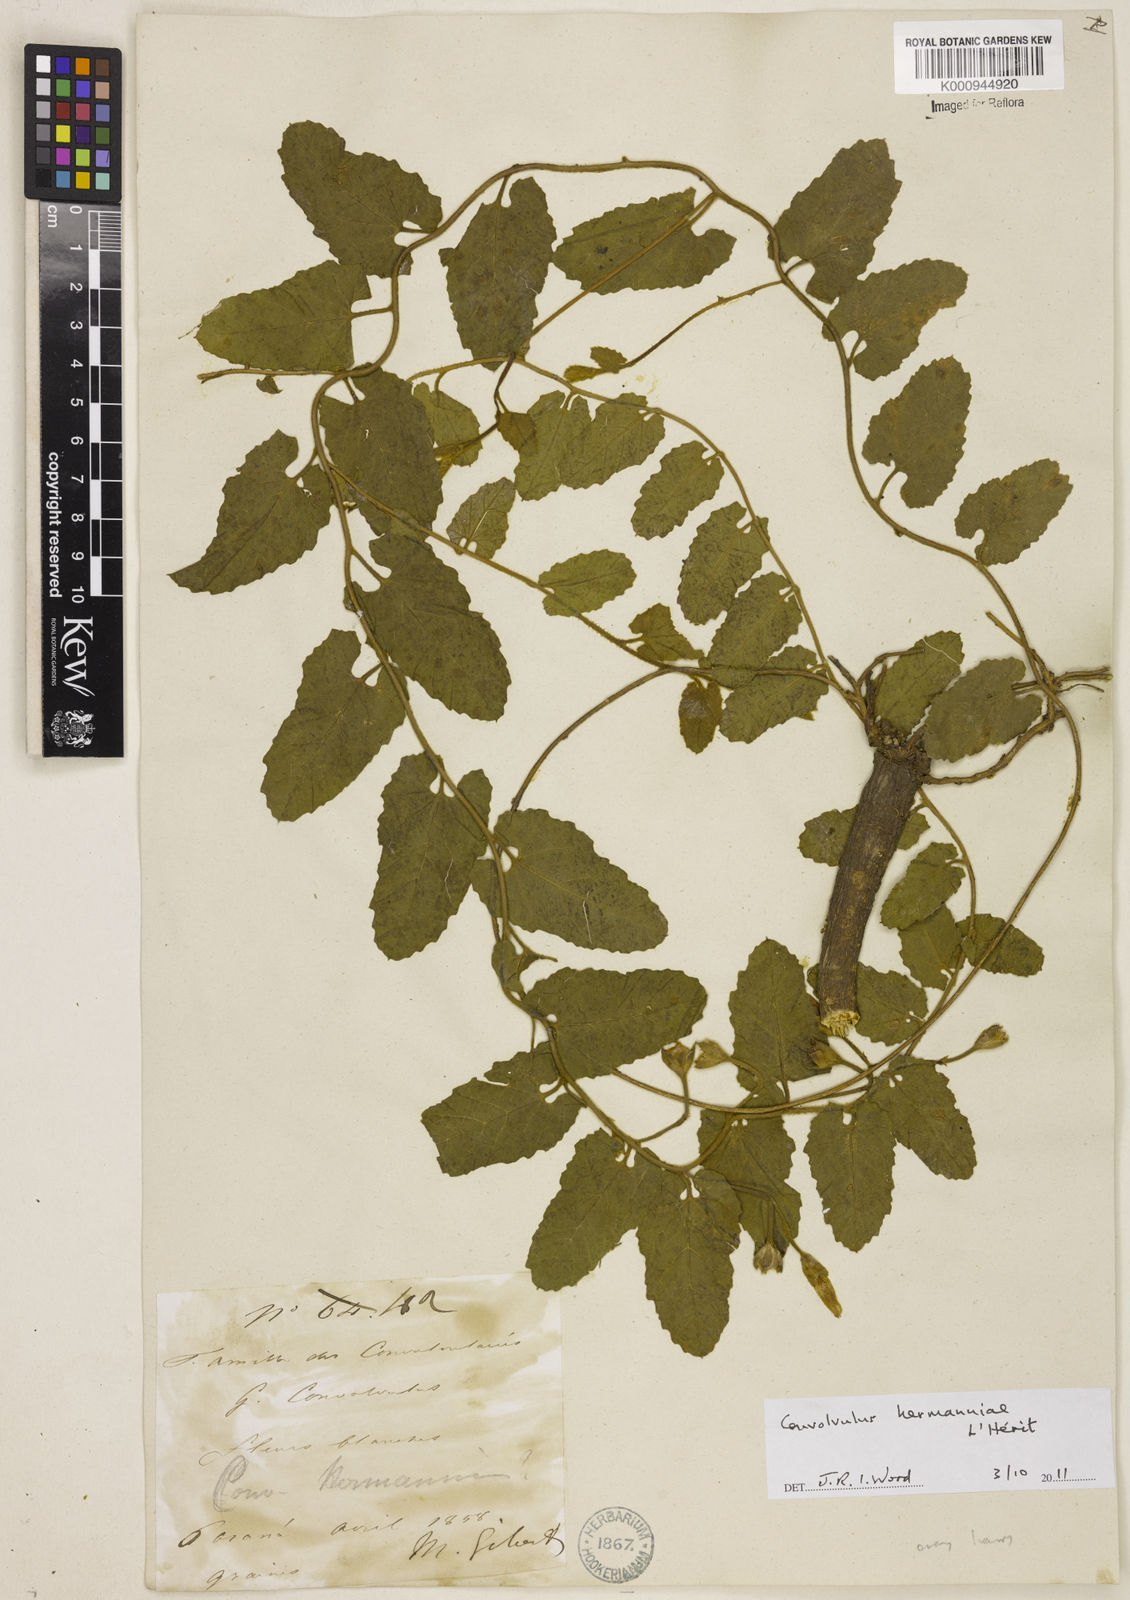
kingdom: Plantae
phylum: Tracheophyta
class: Magnoliopsida
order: Solanales
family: Convolvulaceae
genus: Convolvulus
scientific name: Convolvulus
